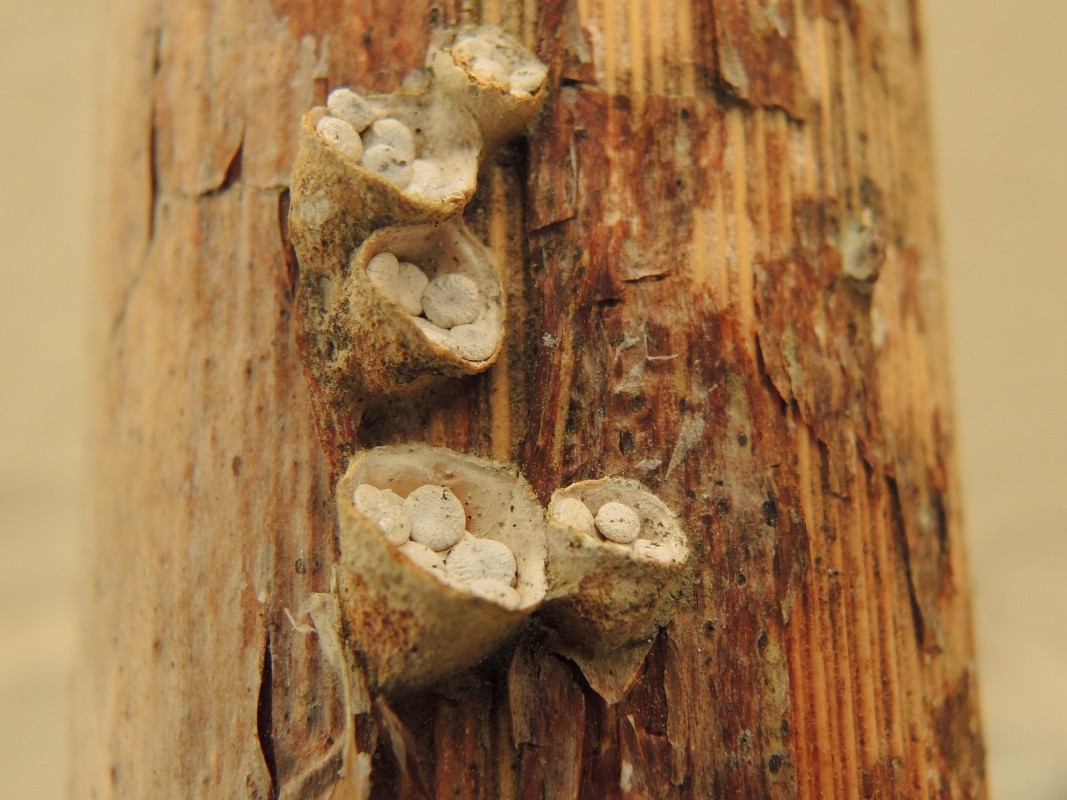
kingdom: Fungi
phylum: Basidiomycota
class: Agaricomycetes
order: Agaricales
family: Nidulariaceae
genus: Crucibulum
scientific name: Crucibulum crucibuliforme
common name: krukkesvamp
